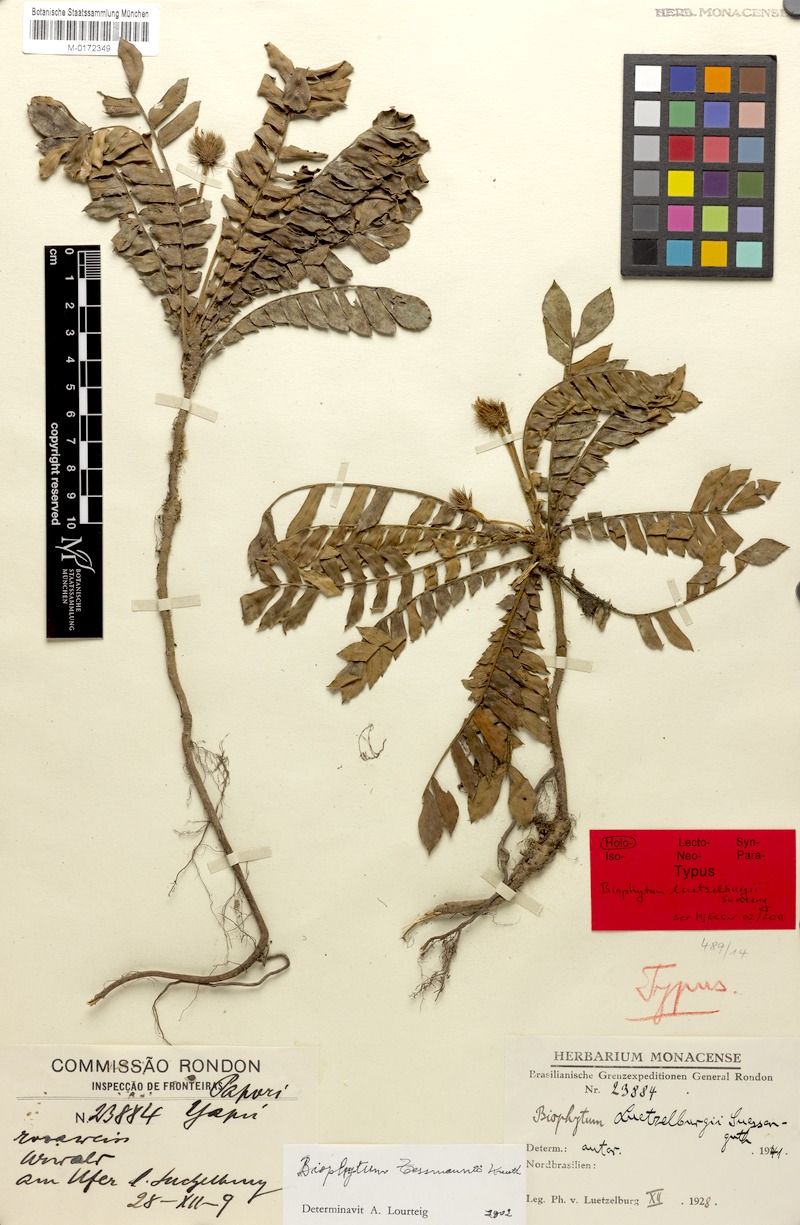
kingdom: Plantae
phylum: Tracheophyta
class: Magnoliopsida
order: Oxalidales
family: Oxalidaceae
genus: Biophytum
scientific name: Biophytum tessmannii
